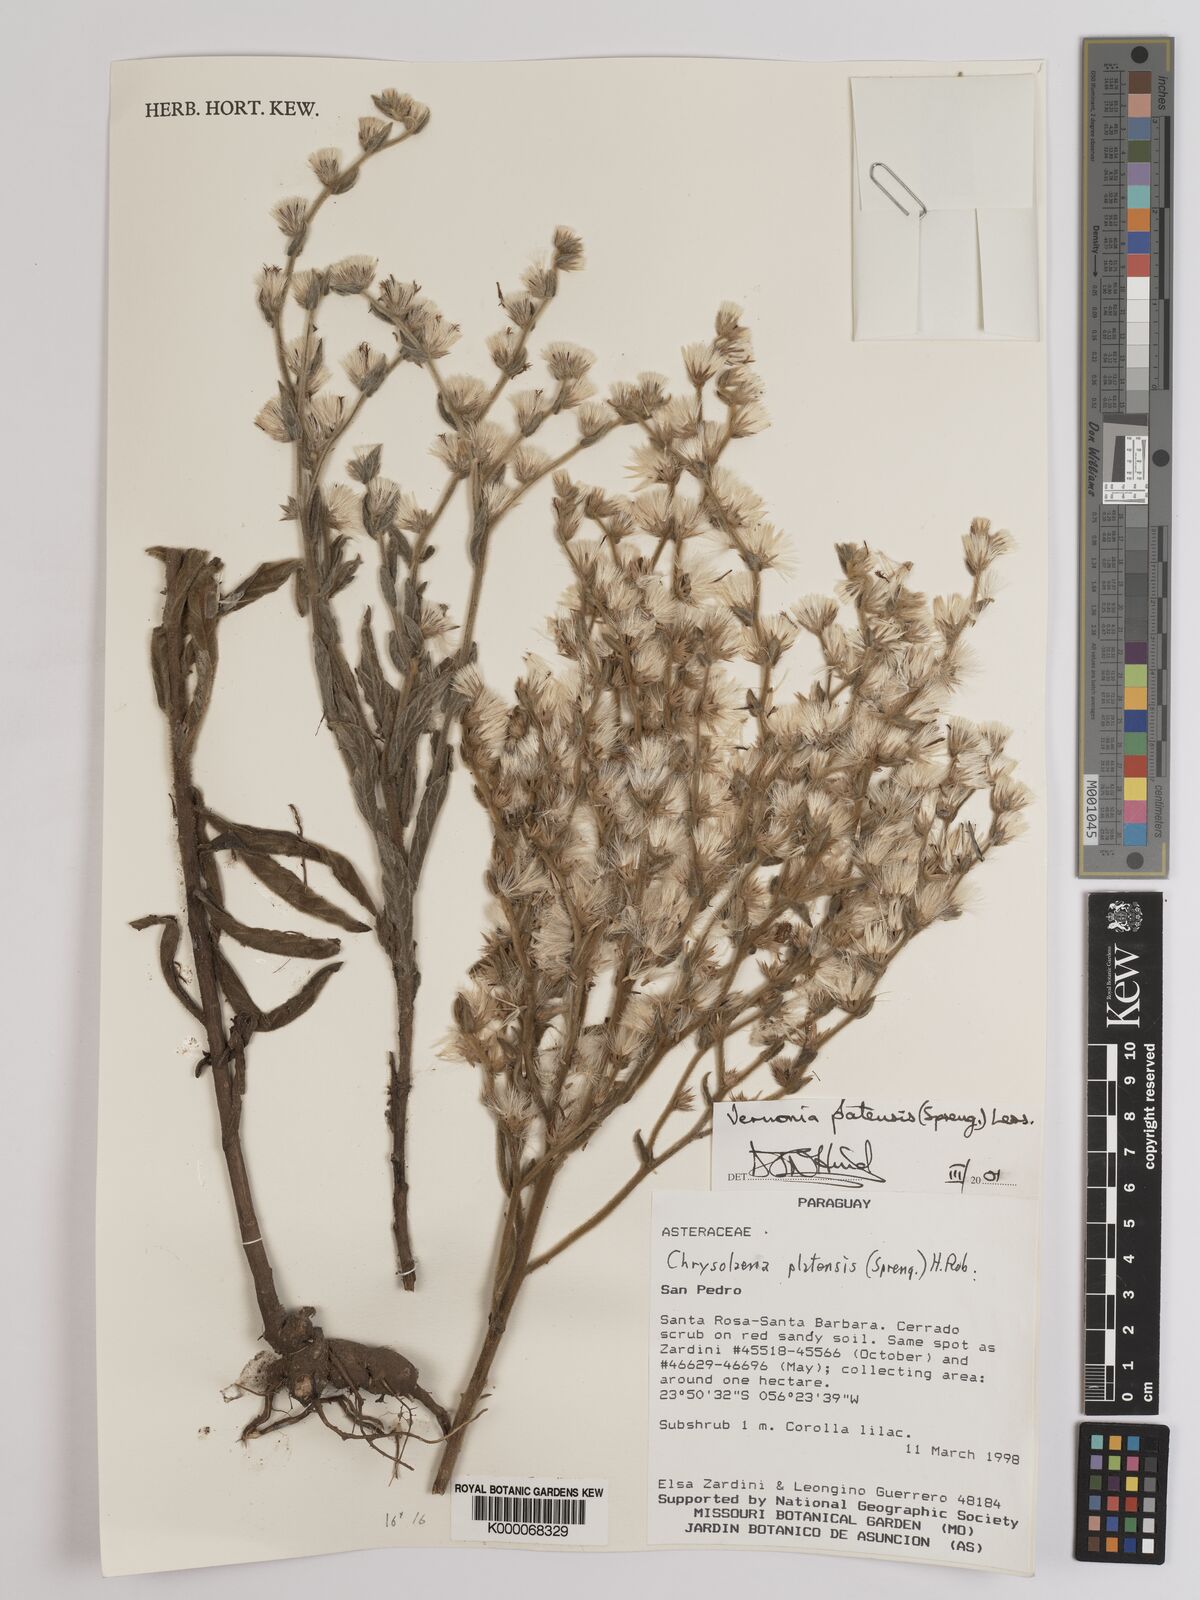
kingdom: Plantae
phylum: Tracheophyta
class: Magnoliopsida
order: Asterales
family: Asteraceae
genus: Chrysolaena
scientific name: Chrysolaena platensis
